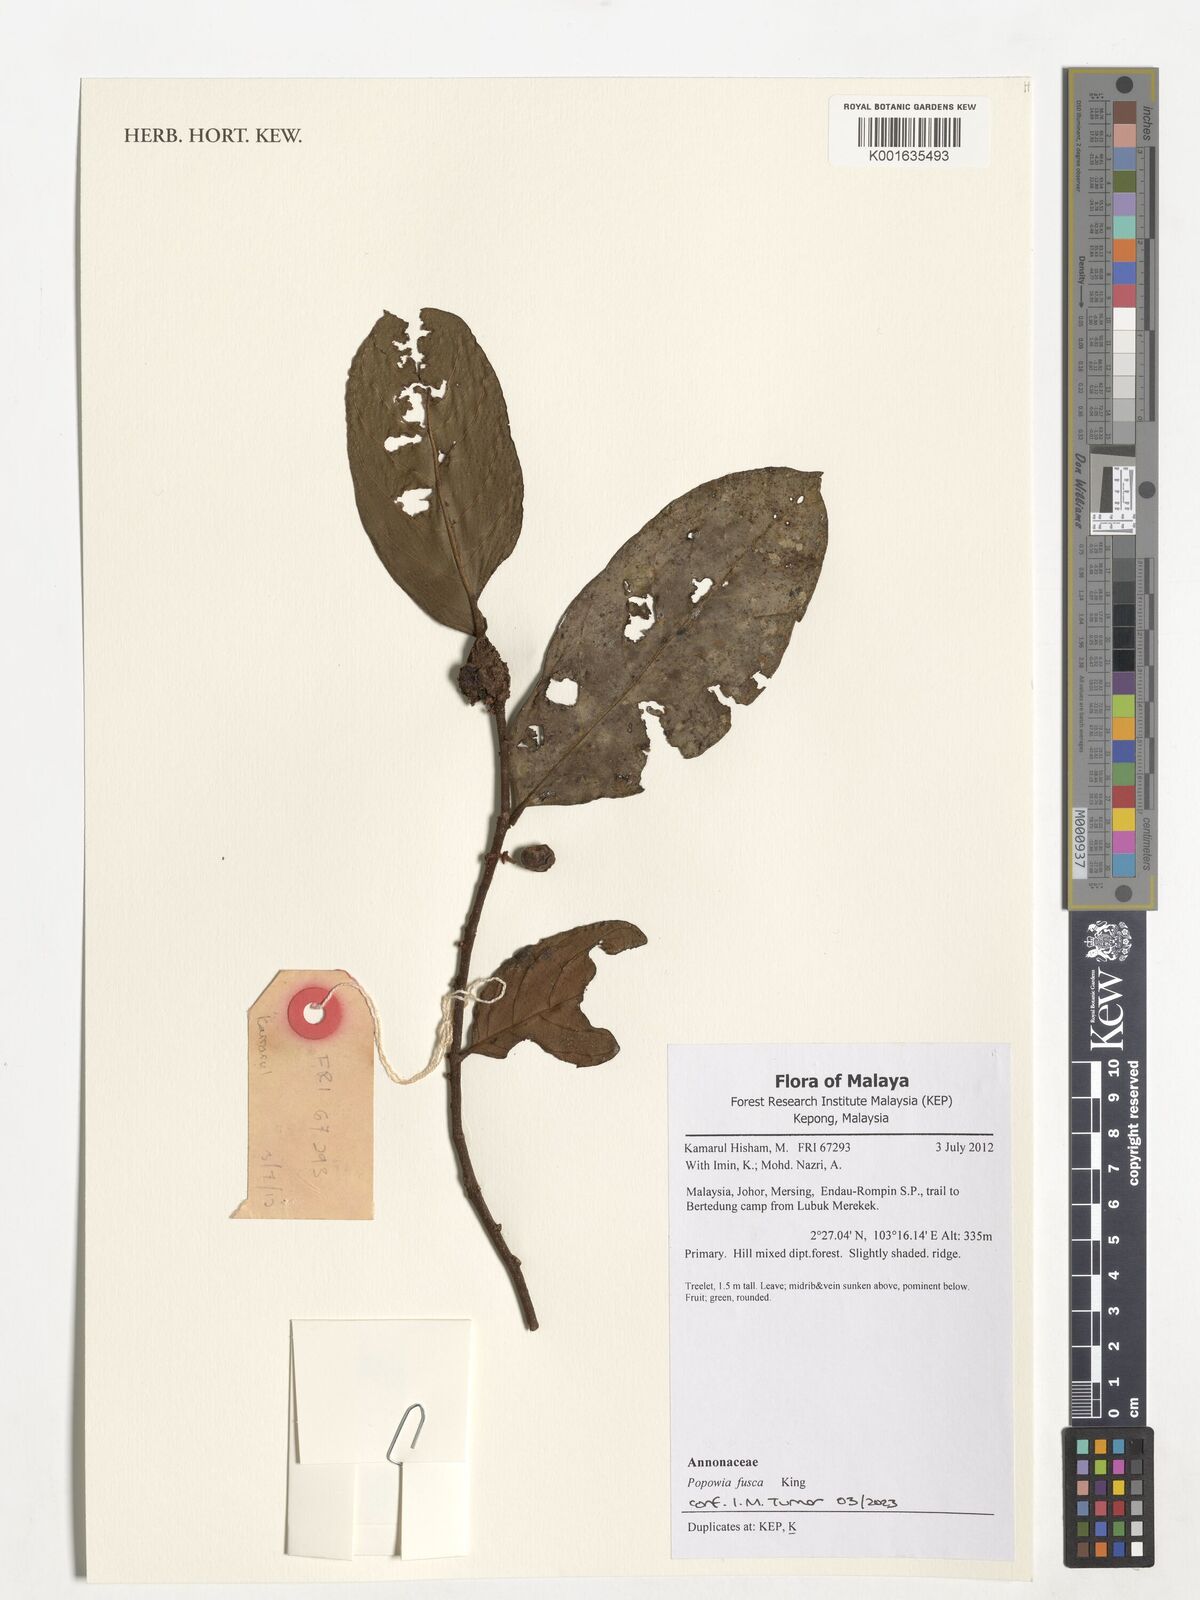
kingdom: Plantae
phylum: Tracheophyta
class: Magnoliopsida
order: Magnoliales
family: Annonaceae
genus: Popowia
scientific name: Popowia fusca
